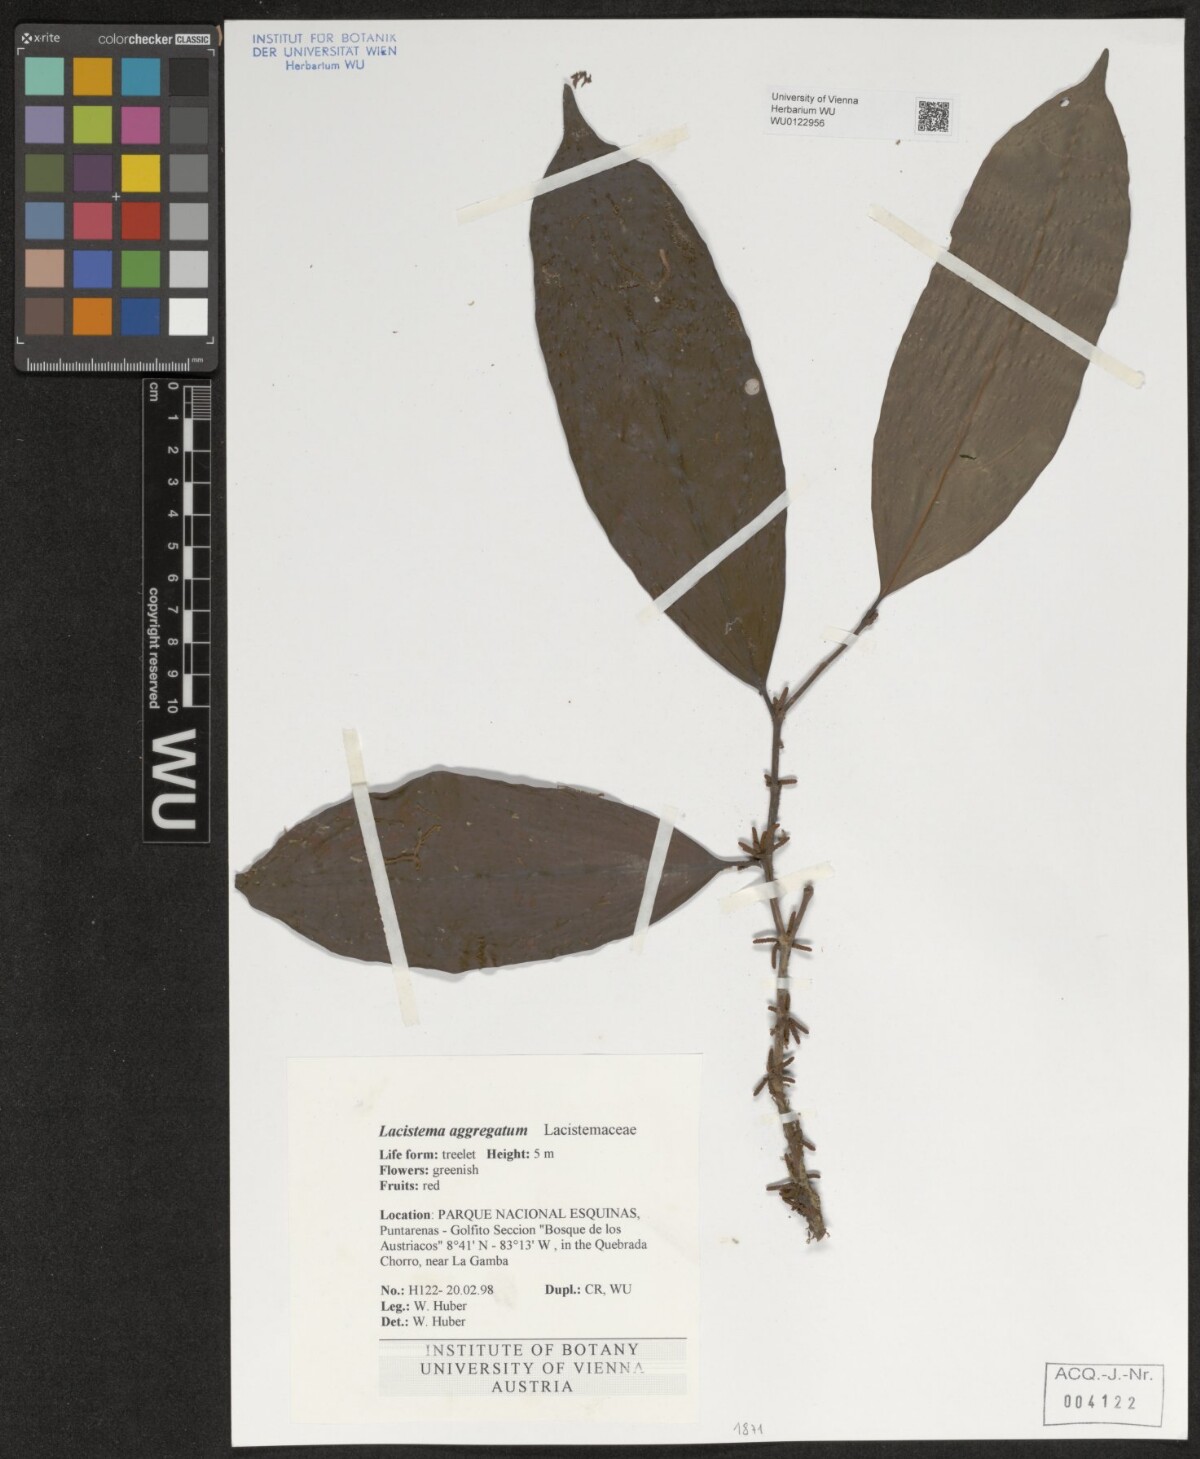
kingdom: Plantae
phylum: Tracheophyta
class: Magnoliopsida
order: Malpighiales
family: Lacistemataceae
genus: Lacistema
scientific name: Lacistema aggregatum
